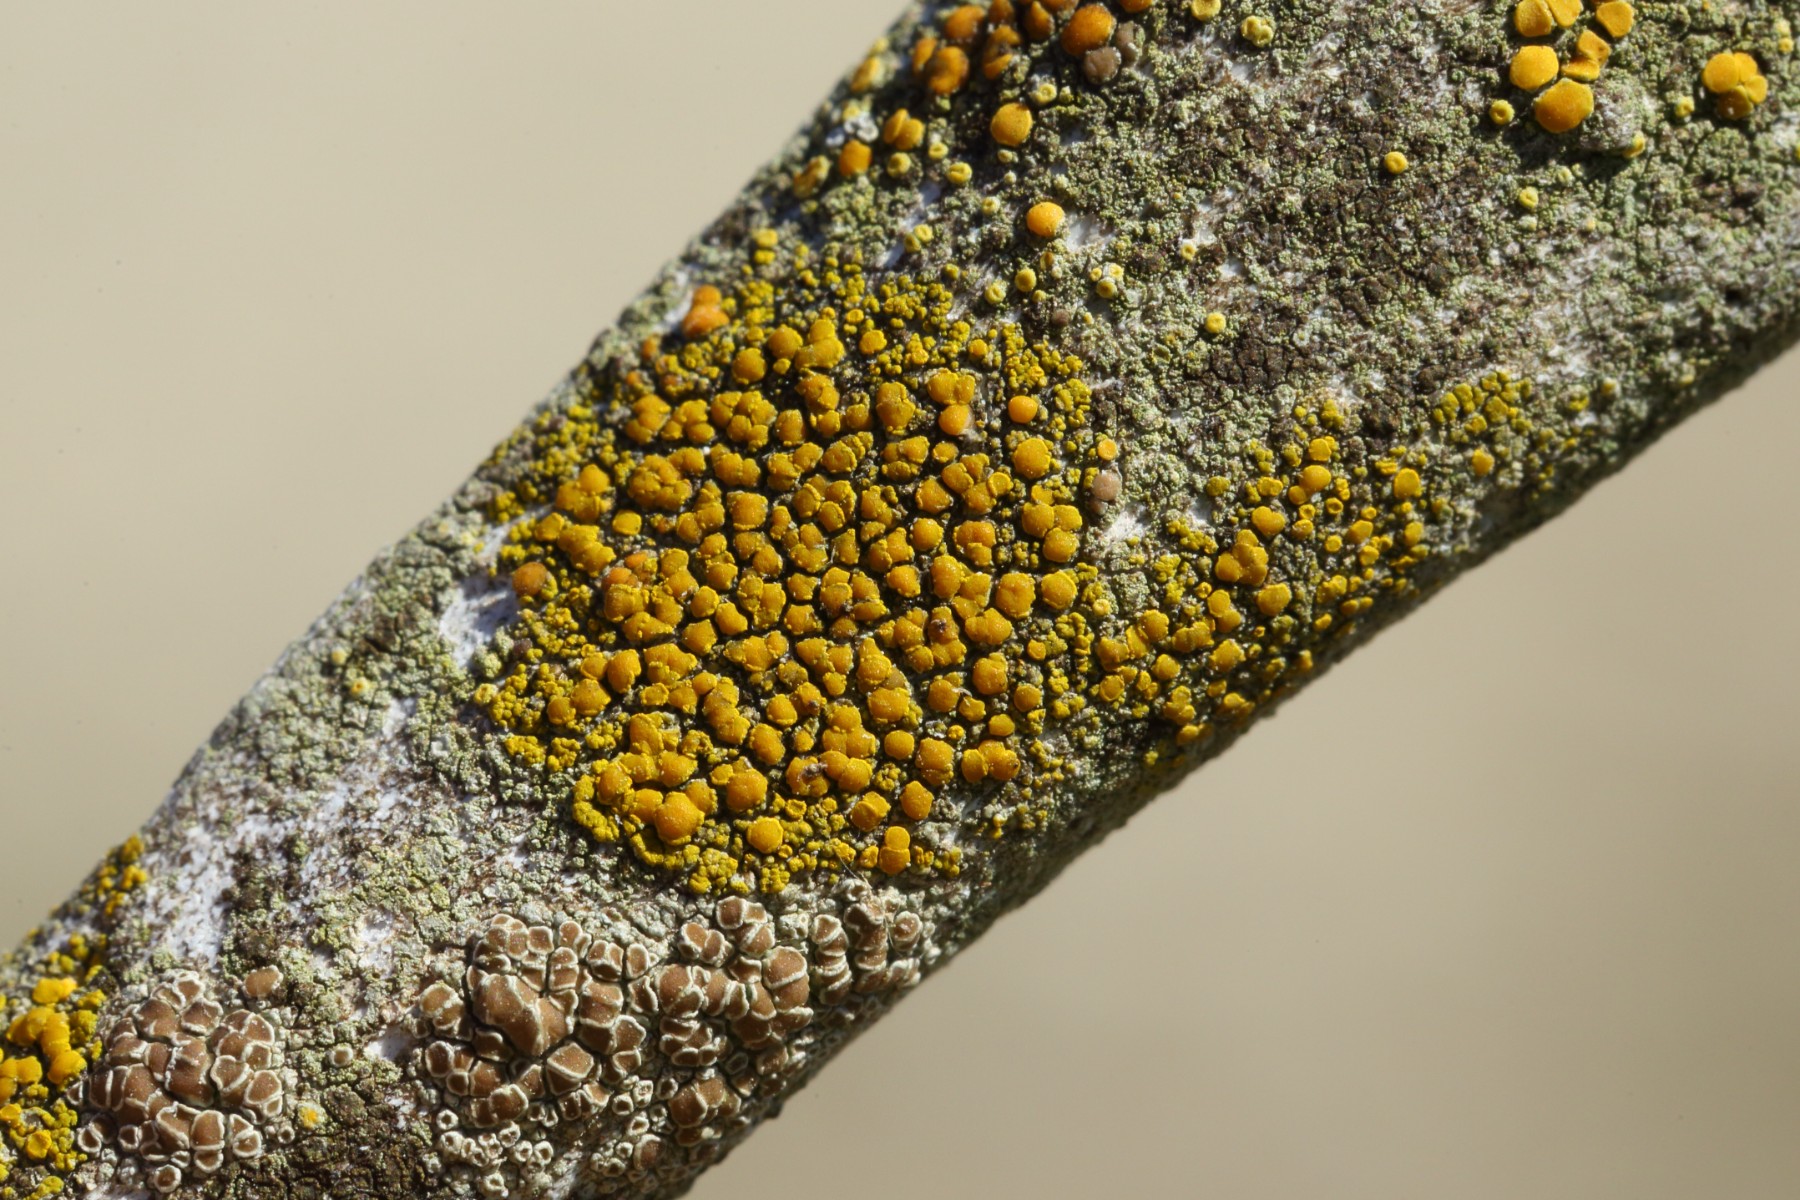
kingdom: Fungi
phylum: Ascomycota
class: Candelariomycetes
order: Candelariales
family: Candelariaceae
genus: Candelariella
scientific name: Candelariella vitellina
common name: almindelig æggeblommelav
